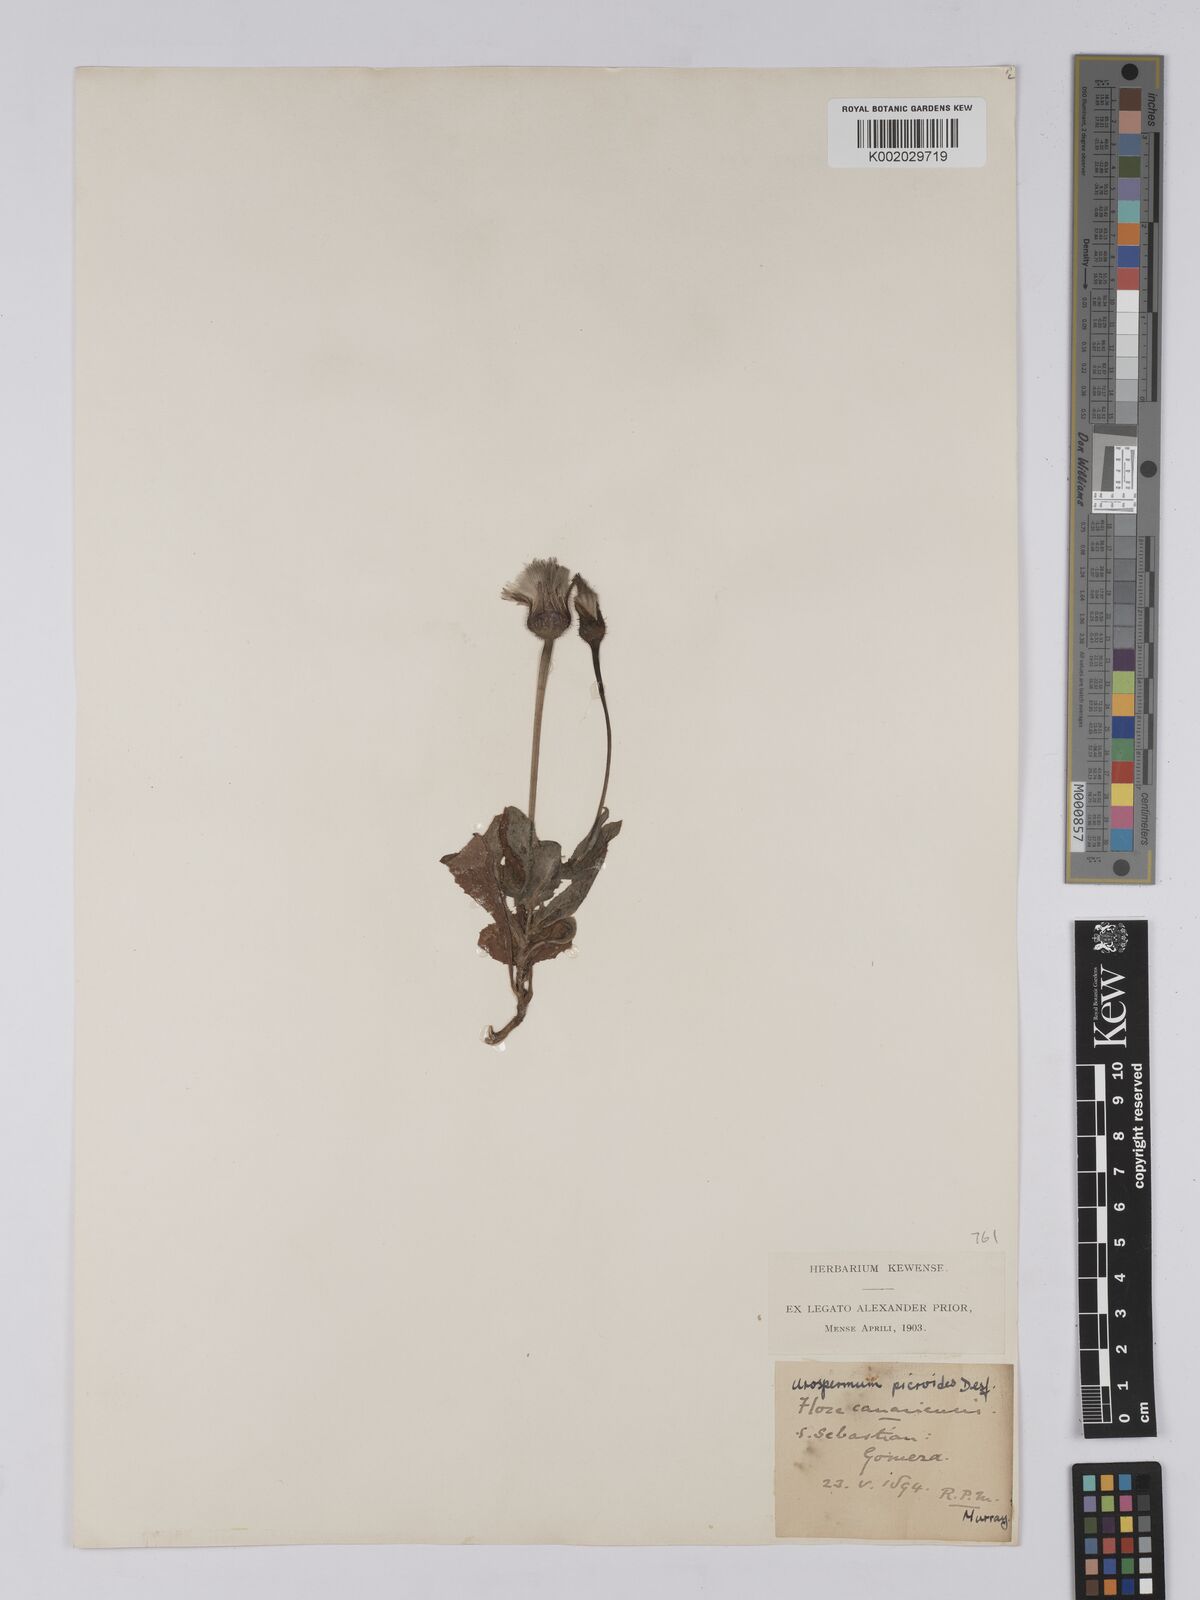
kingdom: Plantae
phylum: Tracheophyta
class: Magnoliopsida
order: Asterales
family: Asteraceae
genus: Urospermum
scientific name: Urospermum picroides
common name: False hawkbit
